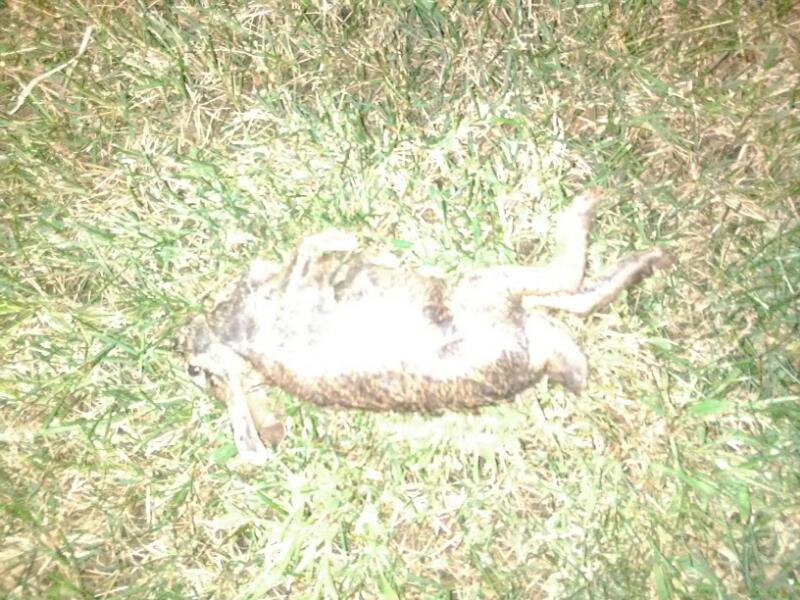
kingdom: Animalia
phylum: Chordata
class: Mammalia
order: Lagomorpha
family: Leporidae
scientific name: Leporidae
